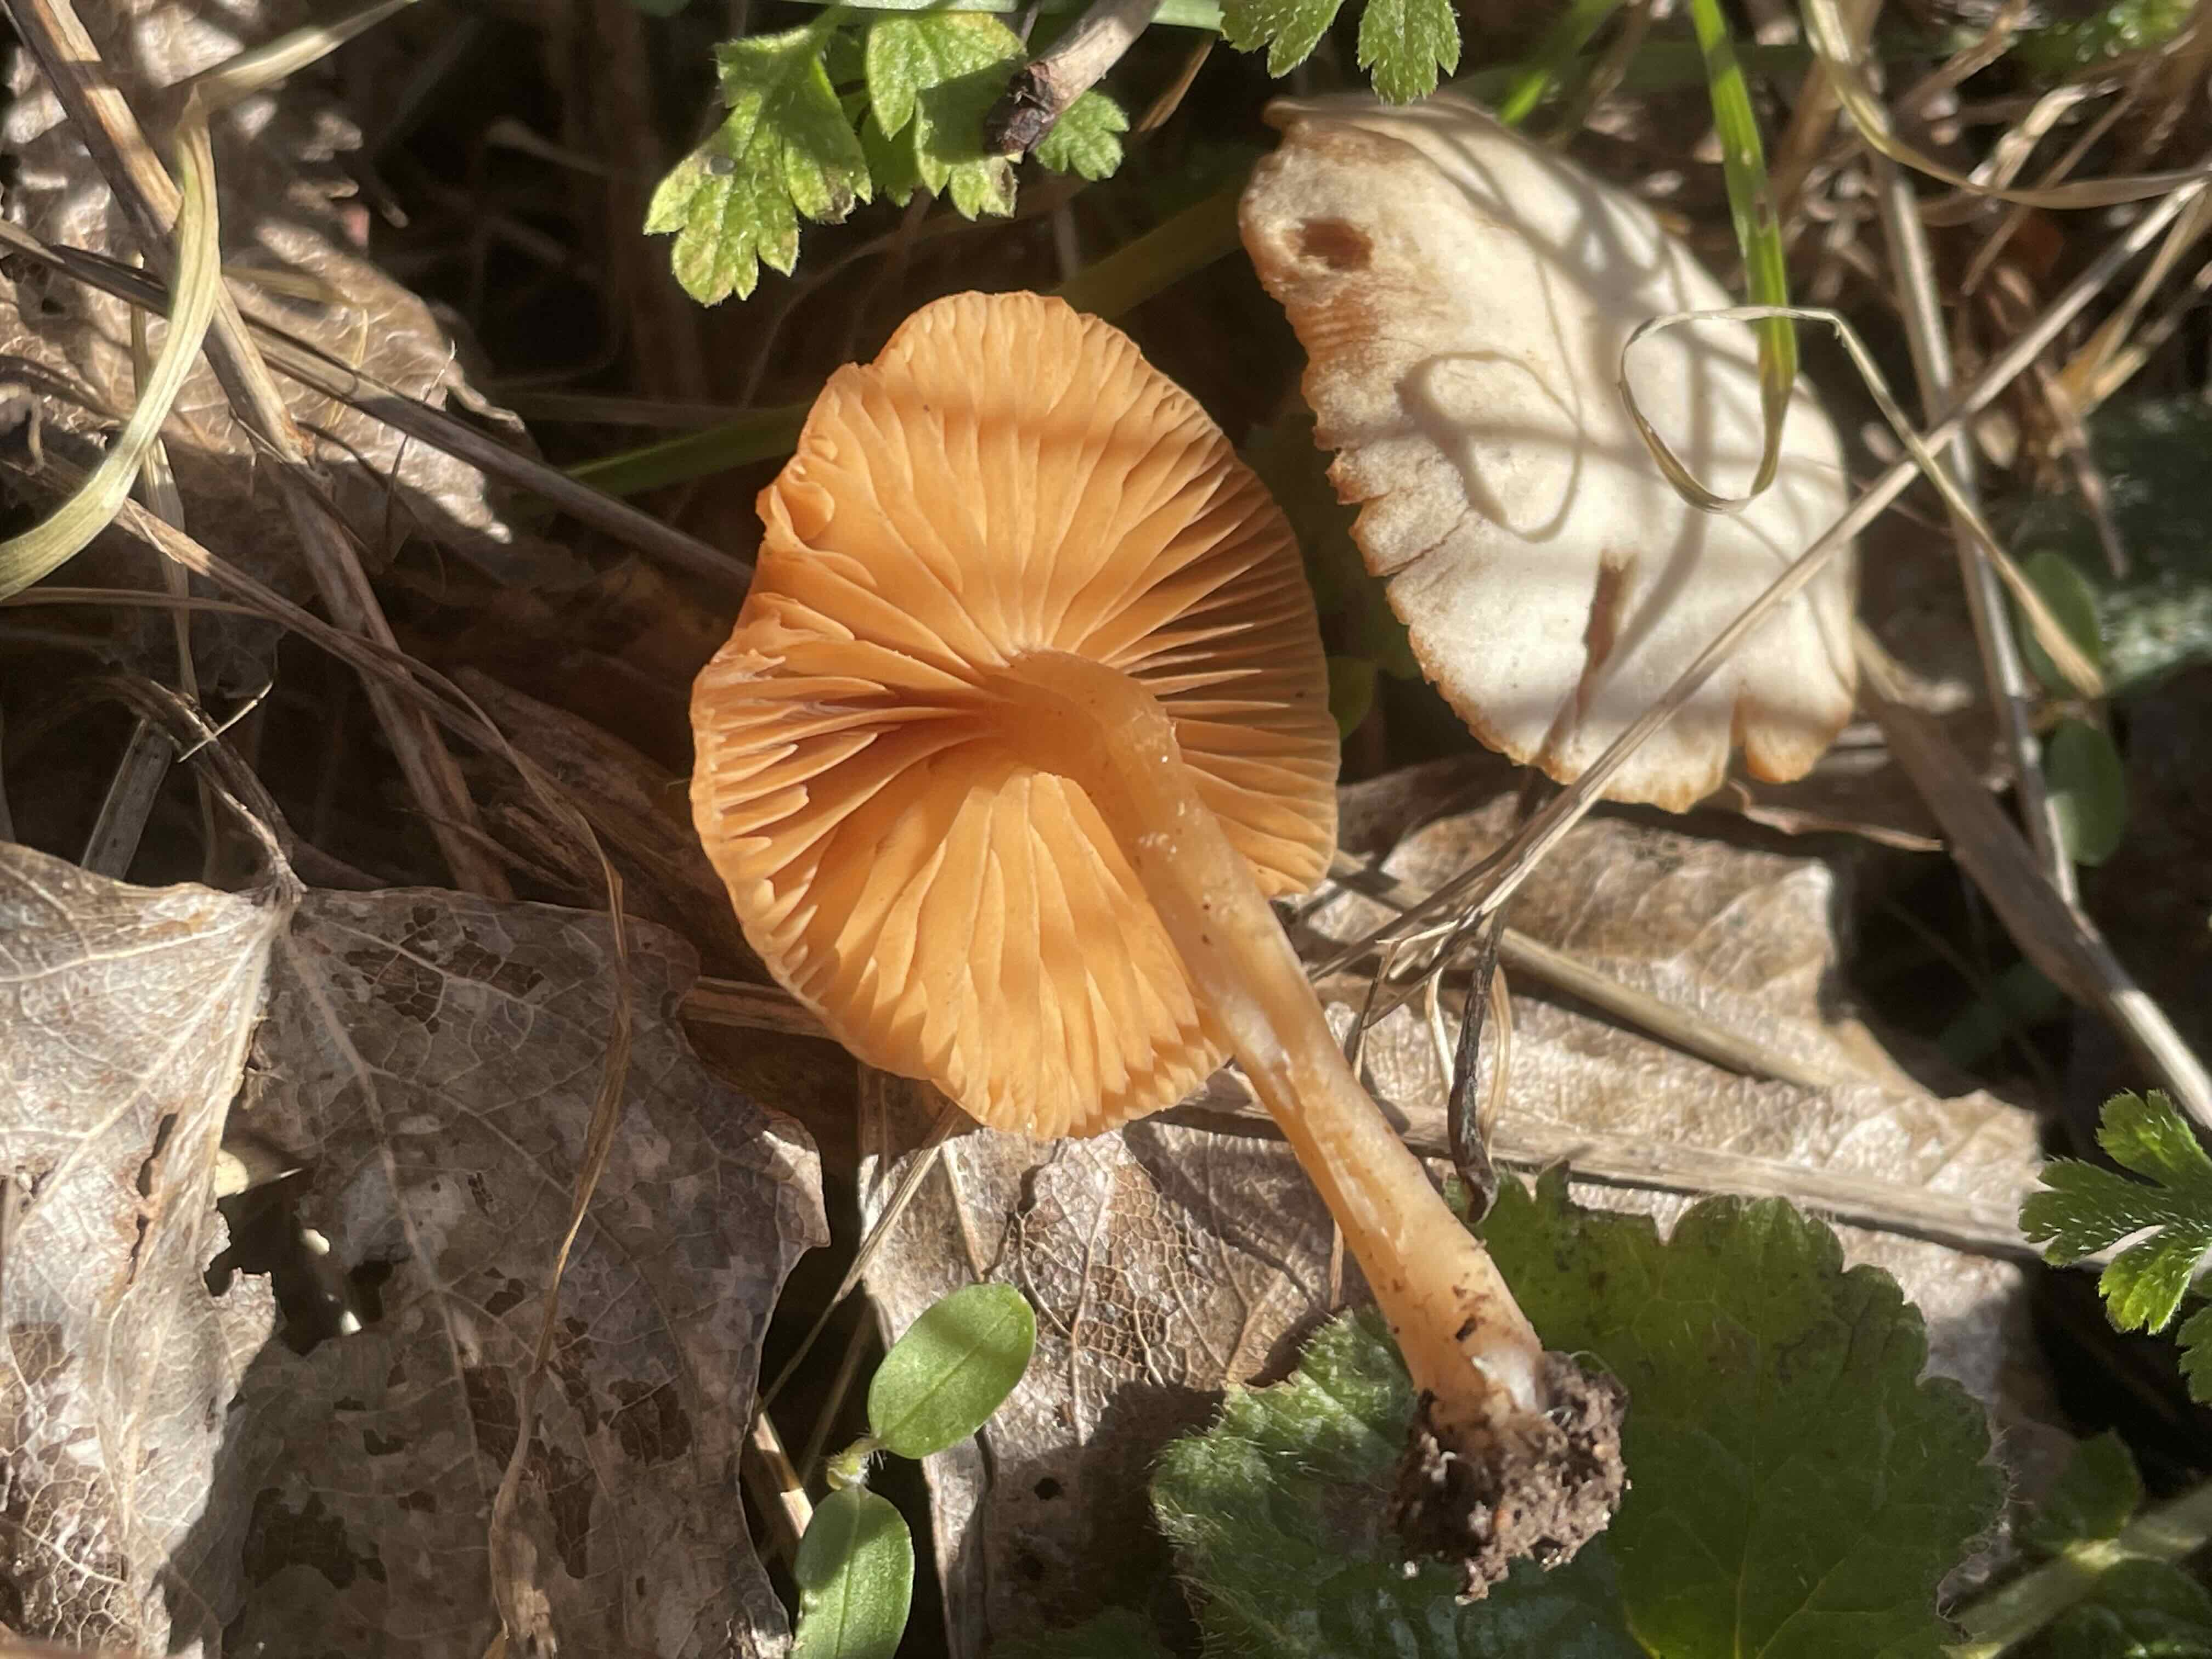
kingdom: Fungi
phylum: Basidiomycota
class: Agaricomycetes
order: Agaricales
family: Tubariaceae
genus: Tubaria
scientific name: Tubaria furfuracea
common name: kliddet fnughat
